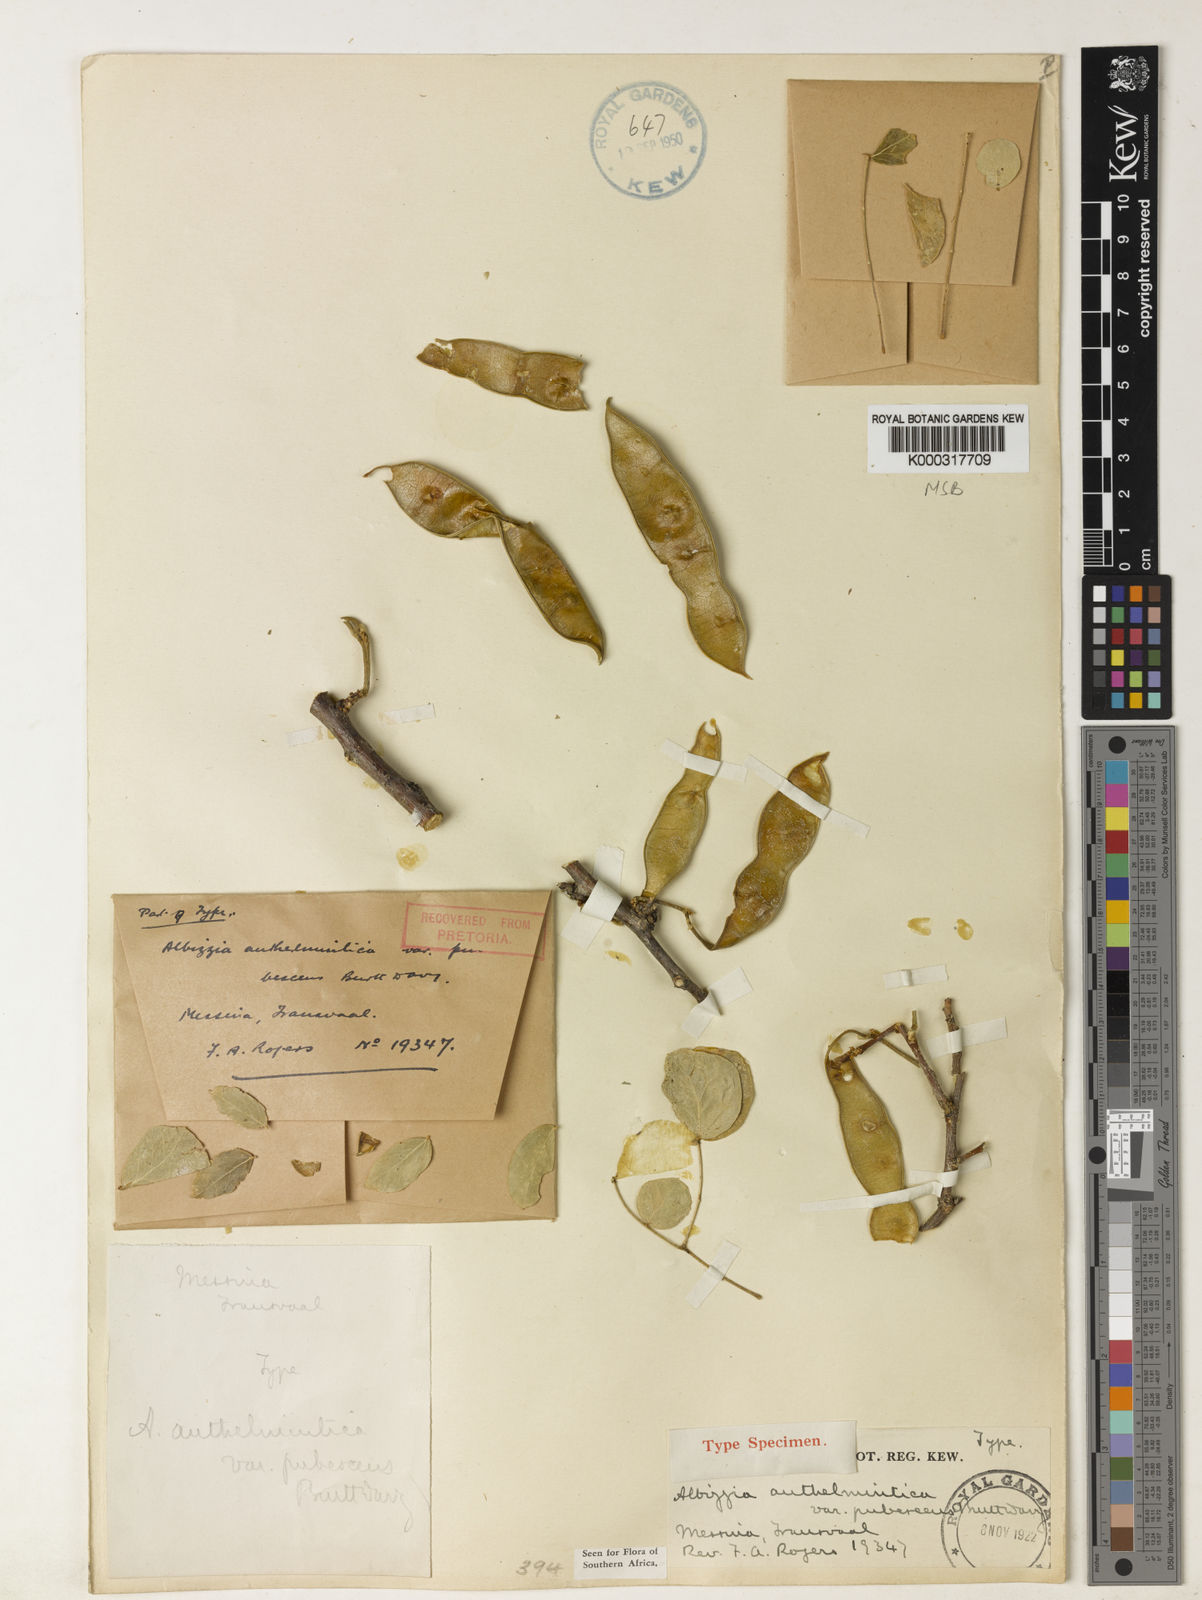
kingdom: Plantae
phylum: Tracheophyta
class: Magnoliopsida
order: Fabales
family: Fabaceae
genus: Albizia
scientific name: Albizia anthelmintica
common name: Worm-bark false-thorn
